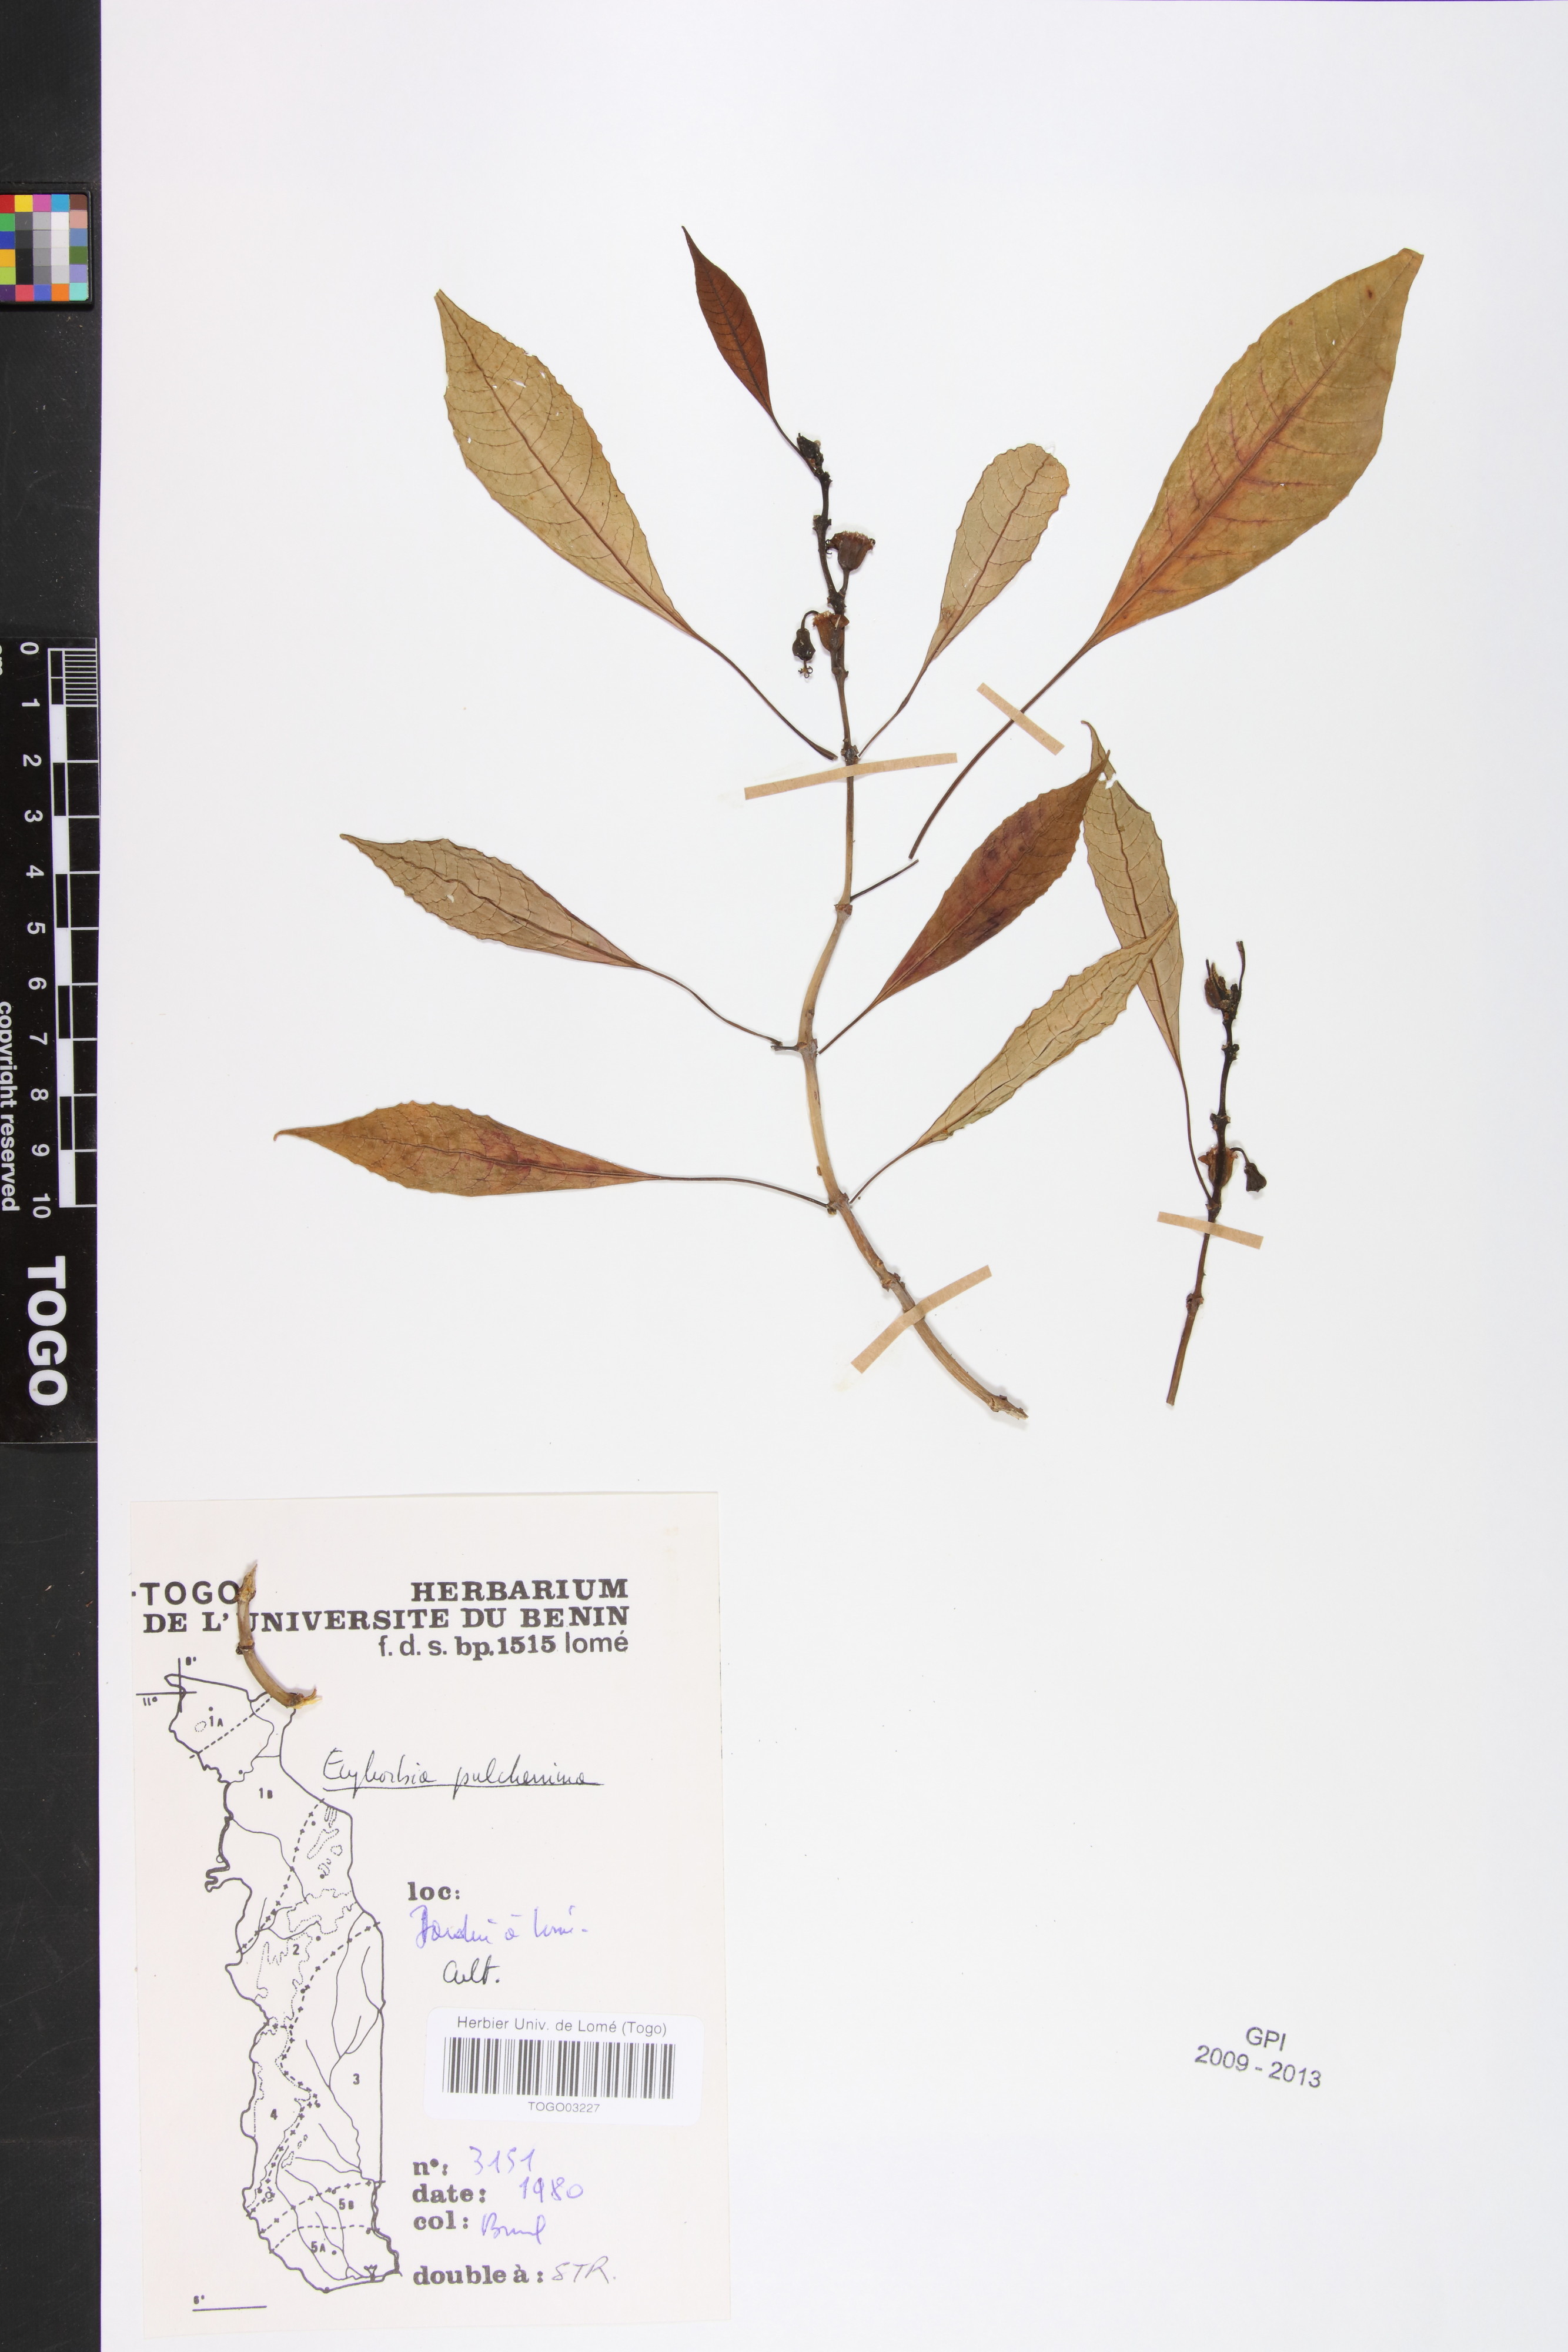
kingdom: Plantae
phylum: Tracheophyta
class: Magnoliopsida
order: Malpighiales
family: Euphorbiaceae
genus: Euphorbia
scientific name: Euphorbia pulcherrima
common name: Christmas-flower
